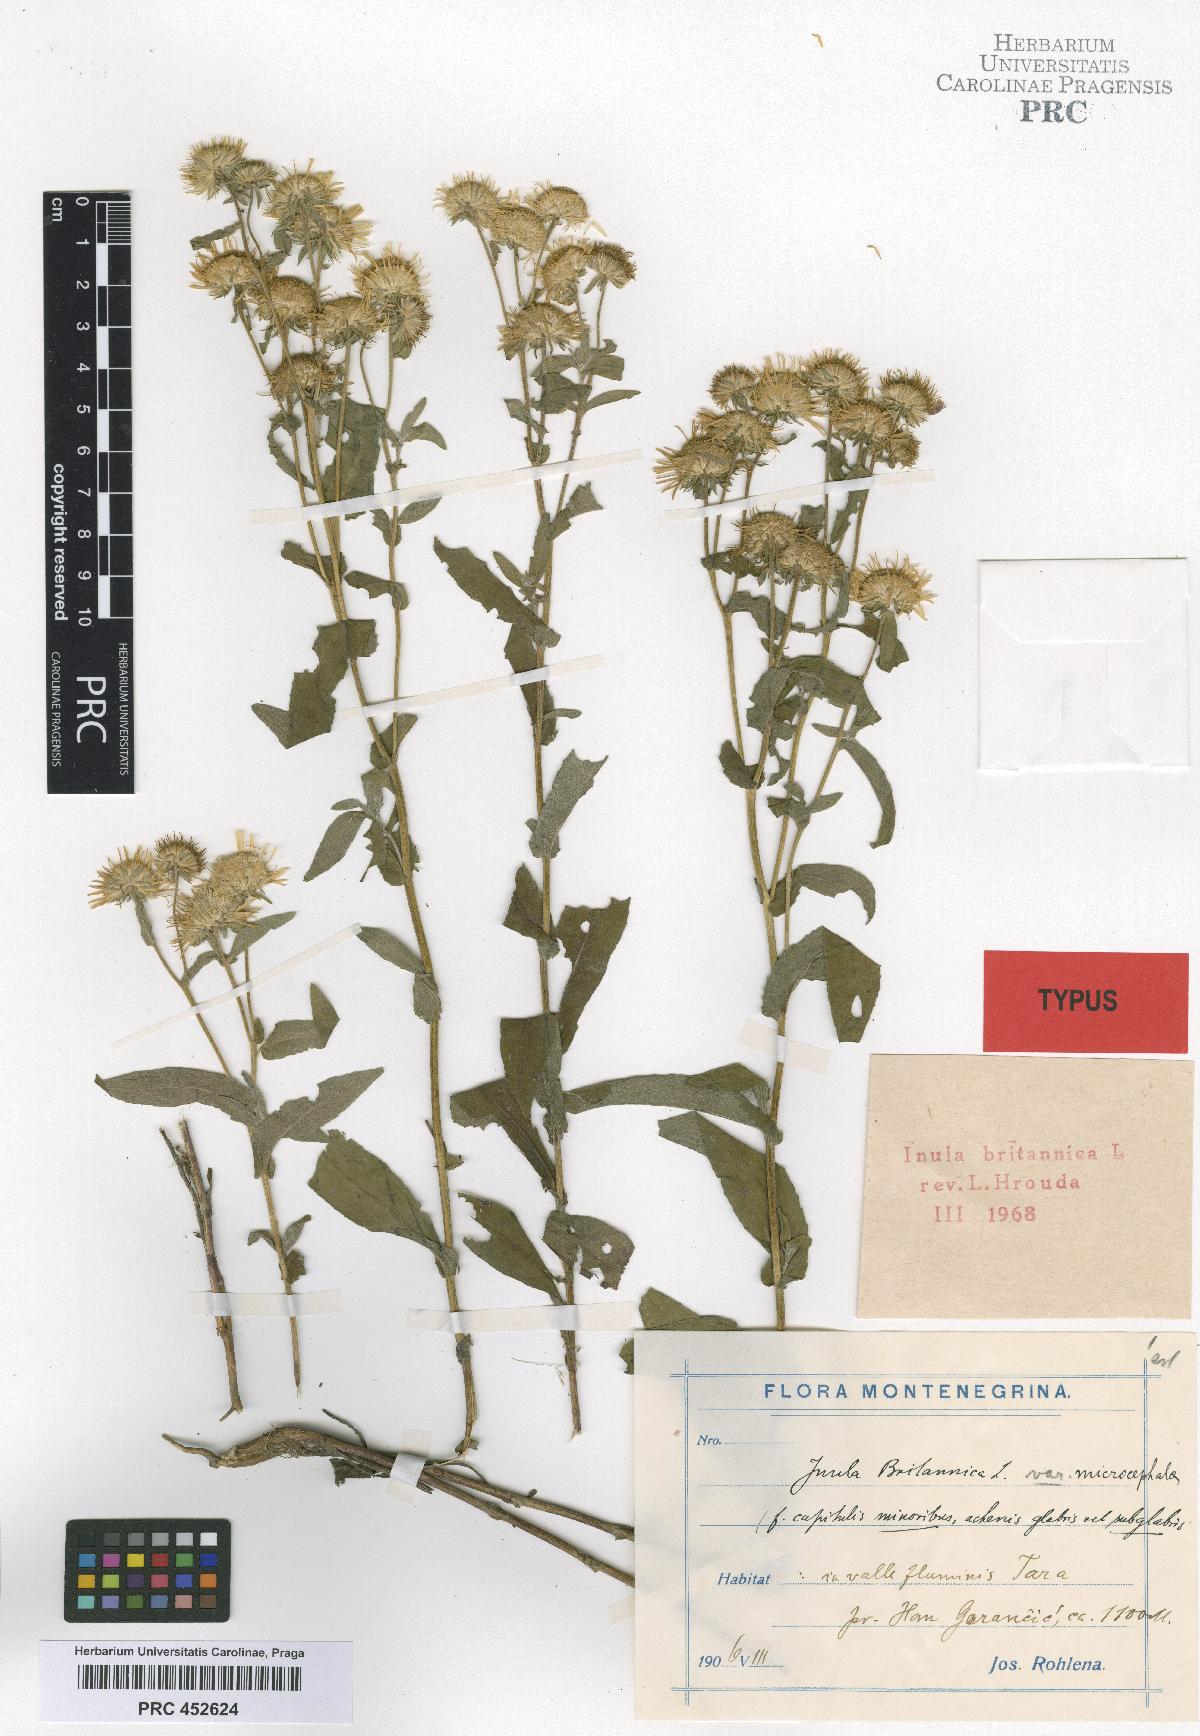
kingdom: Plantae
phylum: Tracheophyta
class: Magnoliopsida
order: Asterales
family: Asteraceae
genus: Pentanema
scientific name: Pentanema britannicum
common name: British elecampane
